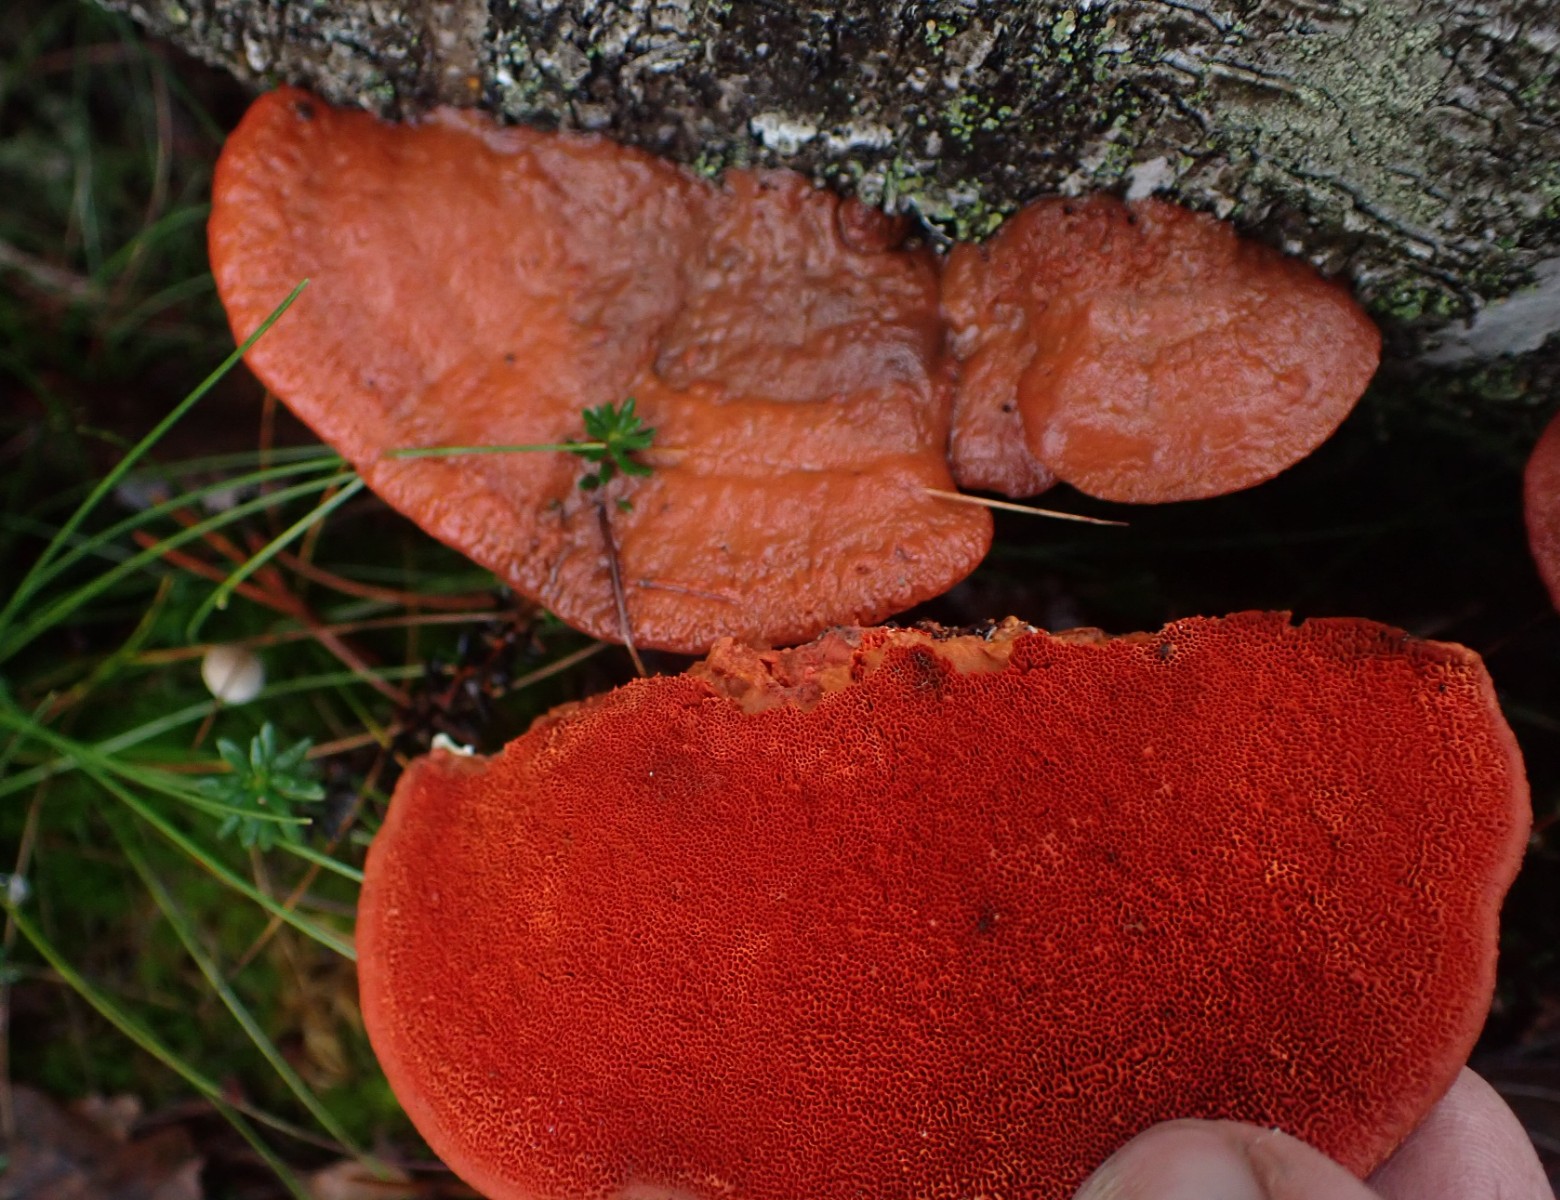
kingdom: Fungi
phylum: Basidiomycota
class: Agaricomycetes
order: Polyporales
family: Polyporaceae
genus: Trametes
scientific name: Trametes cinnabarina
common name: cinnoberporesvamp
